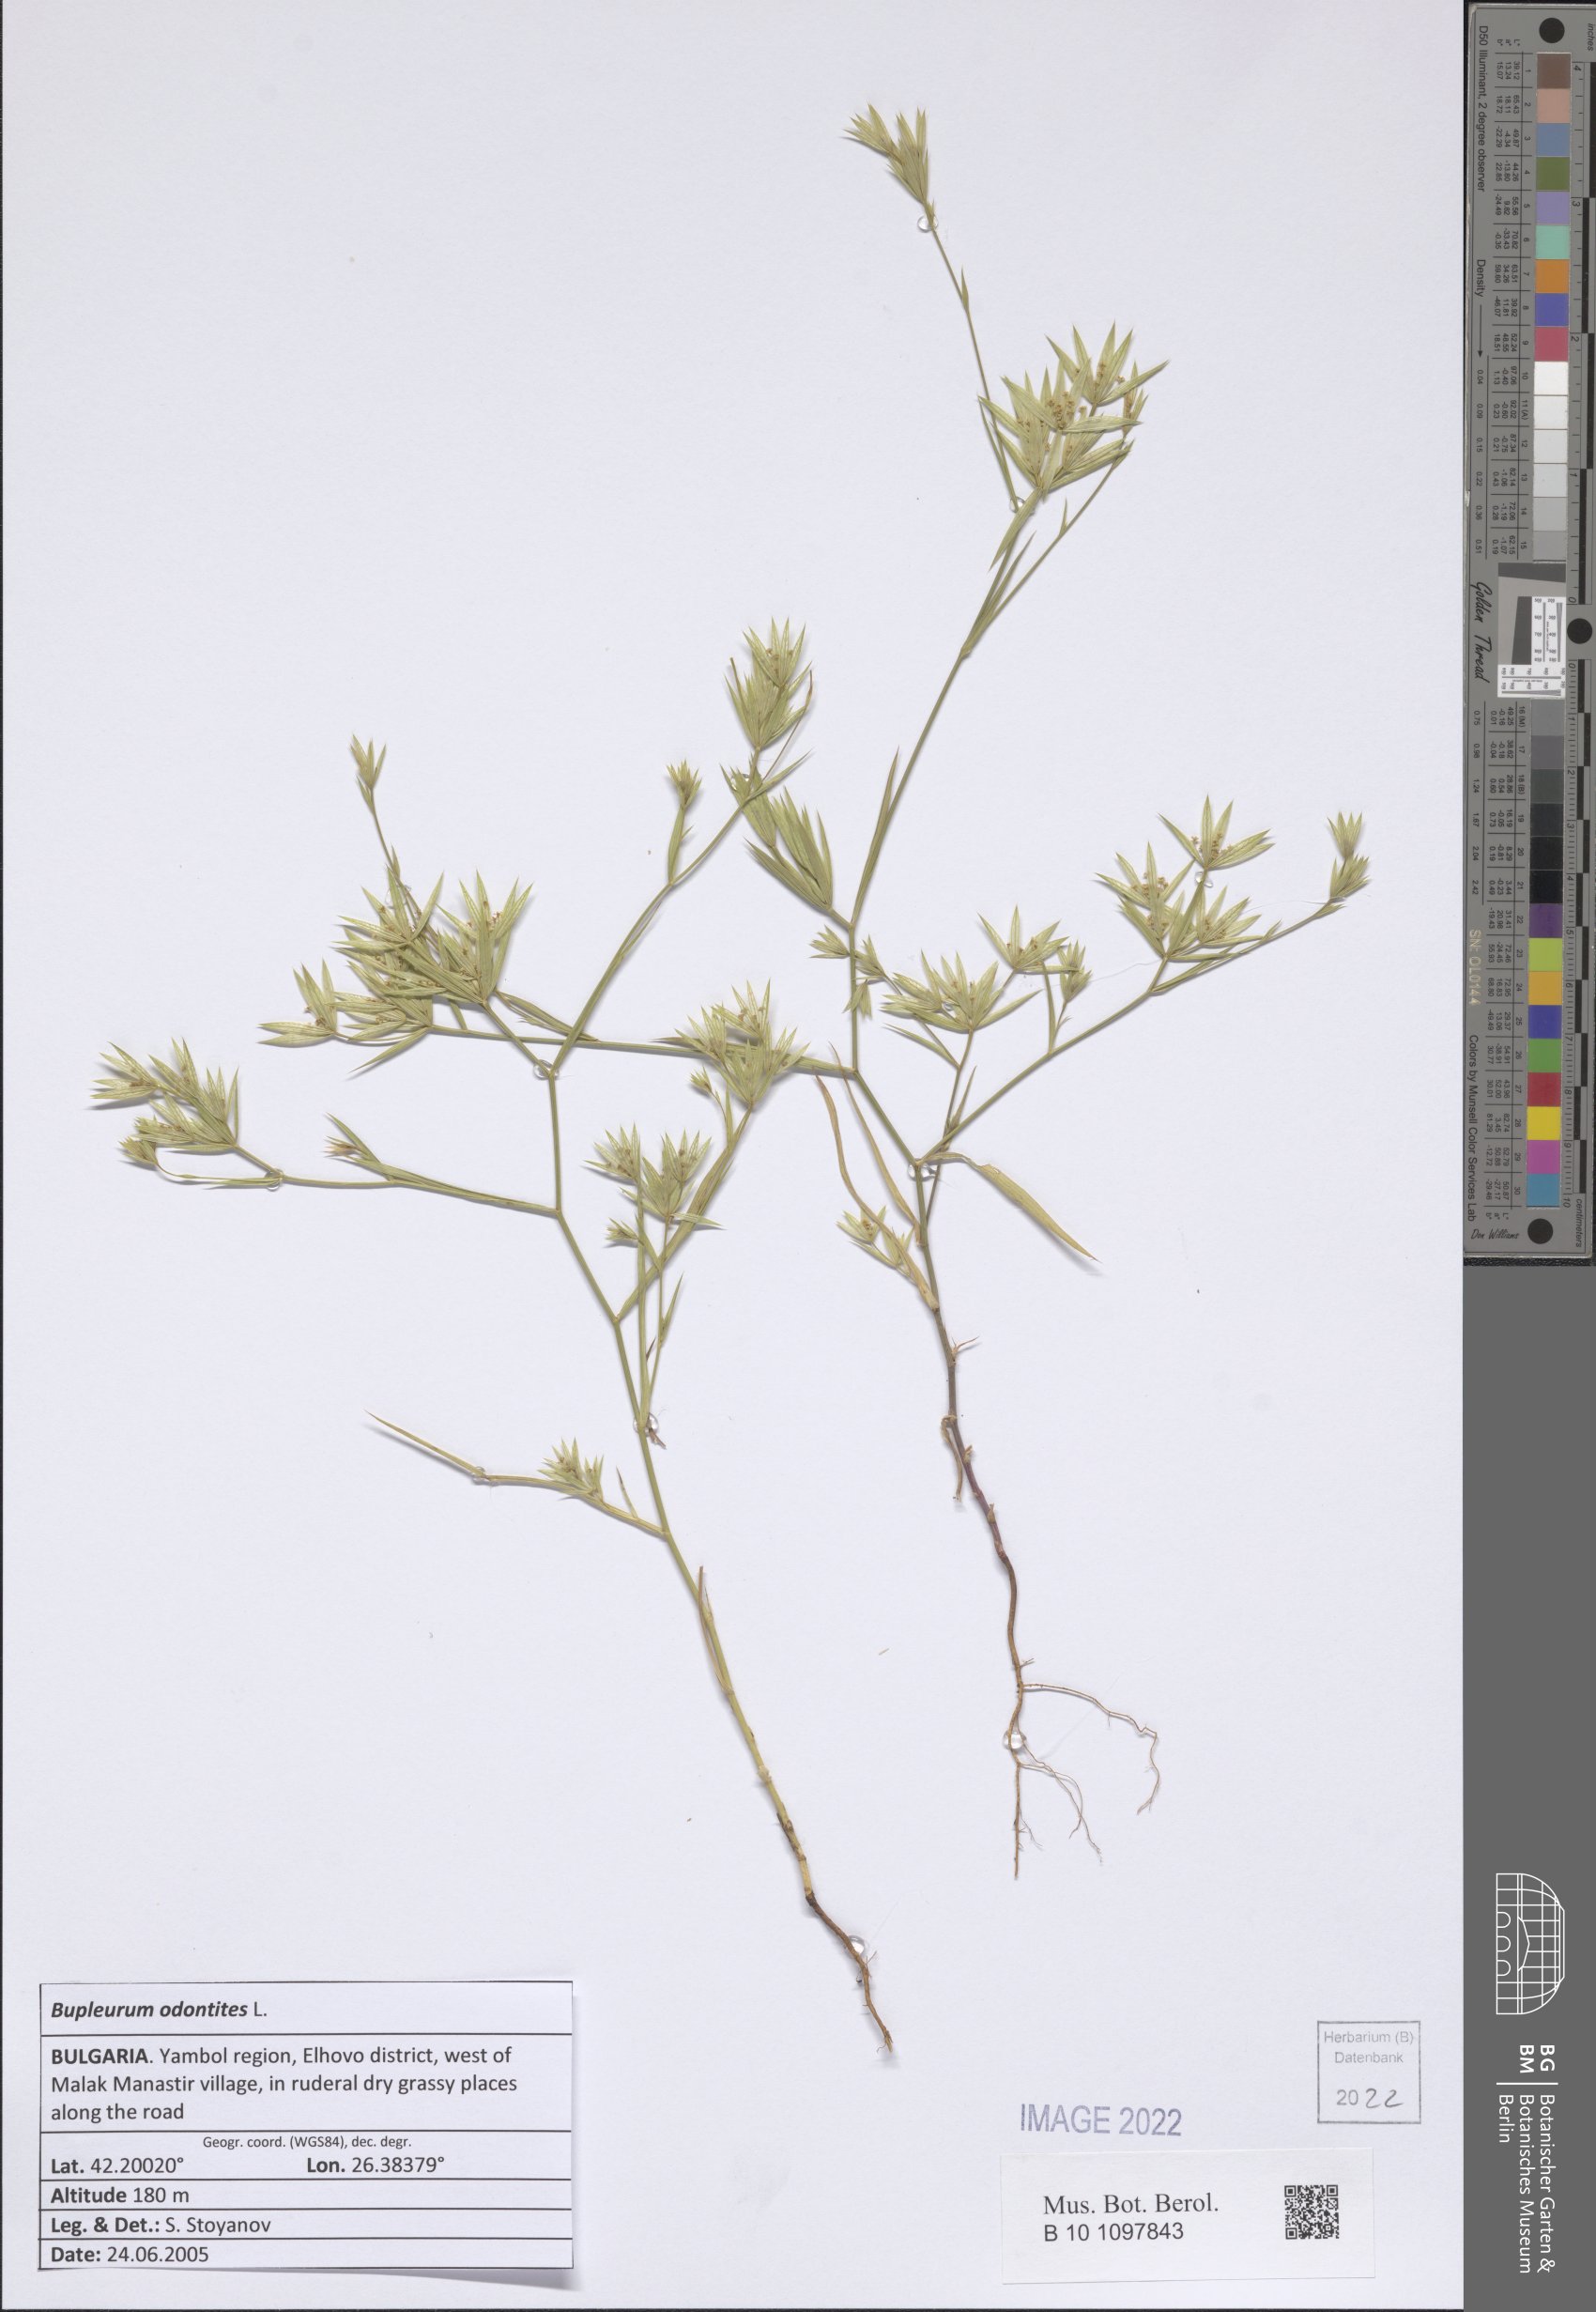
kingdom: Plantae
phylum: Tracheophyta
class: Magnoliopsida
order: Apiales
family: Apiaceae
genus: Bupleurum
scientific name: Bupleurum odontites
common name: Narrowleaf thorow wax
